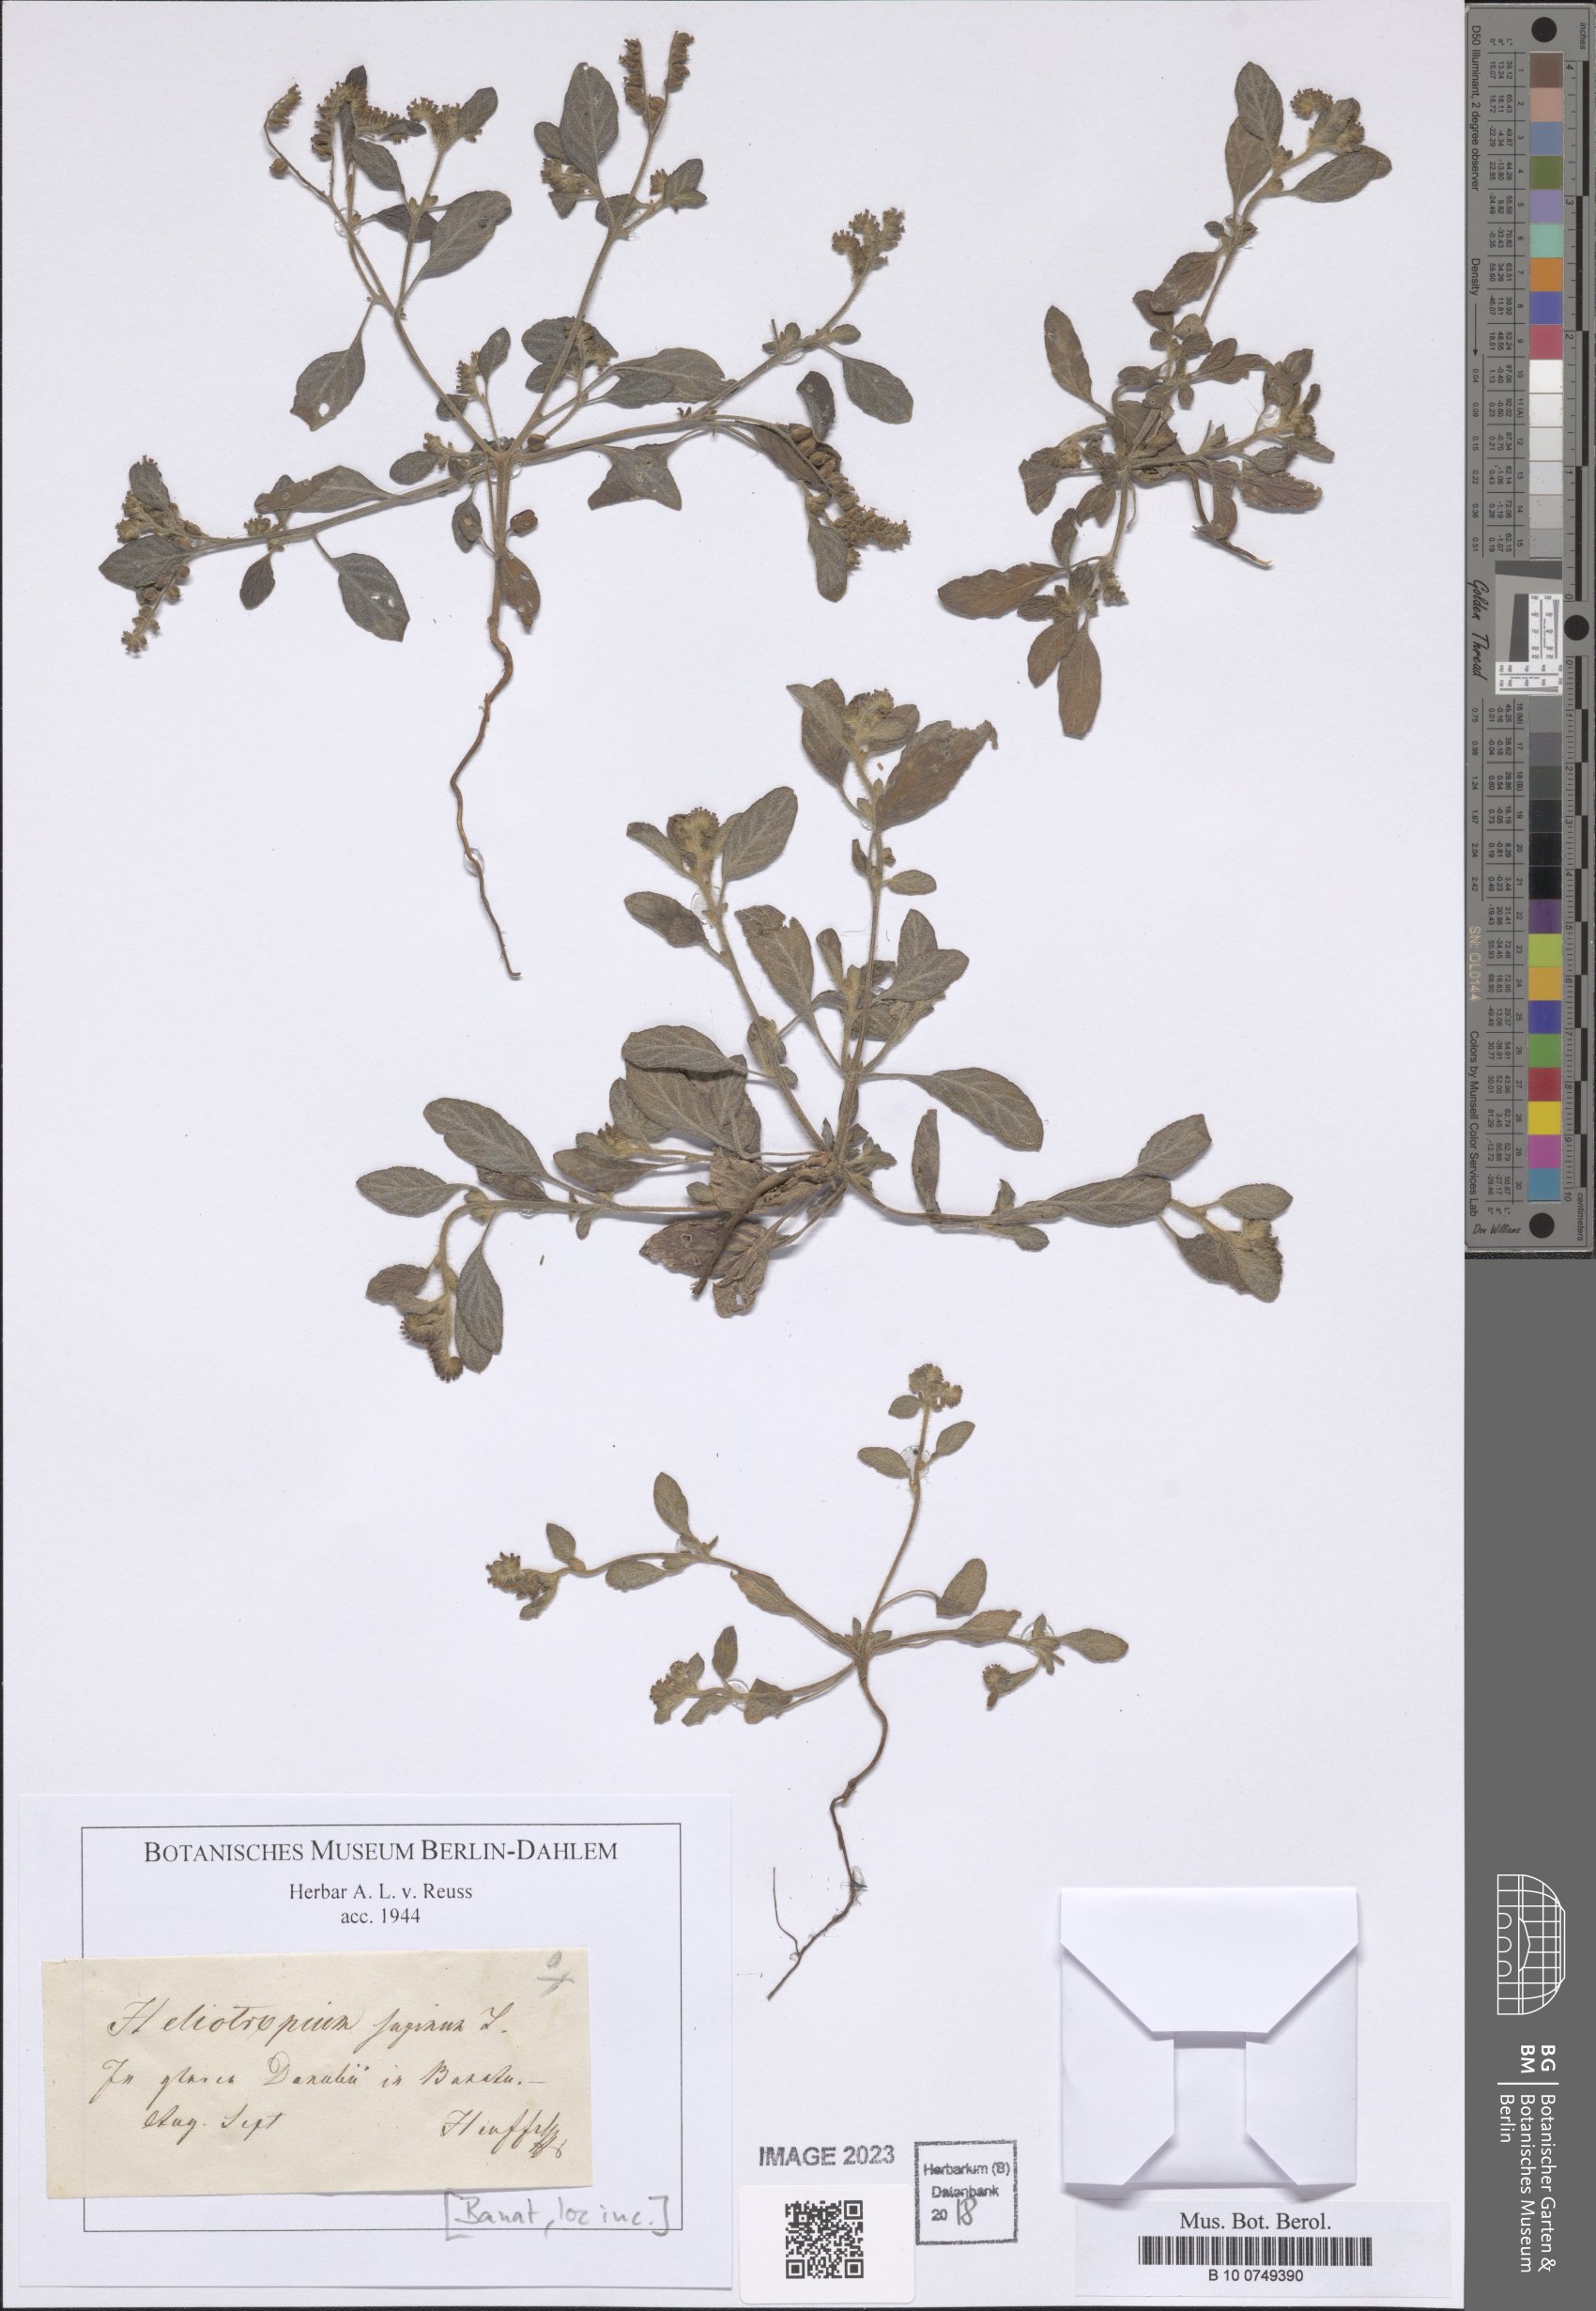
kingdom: Plantae
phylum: Tracheophyta
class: Magnoliopsida
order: Boraginales
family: Heliotropiaceae
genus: Heliotropium
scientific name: Heliotropium supinum
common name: Dwarf heliotrope
